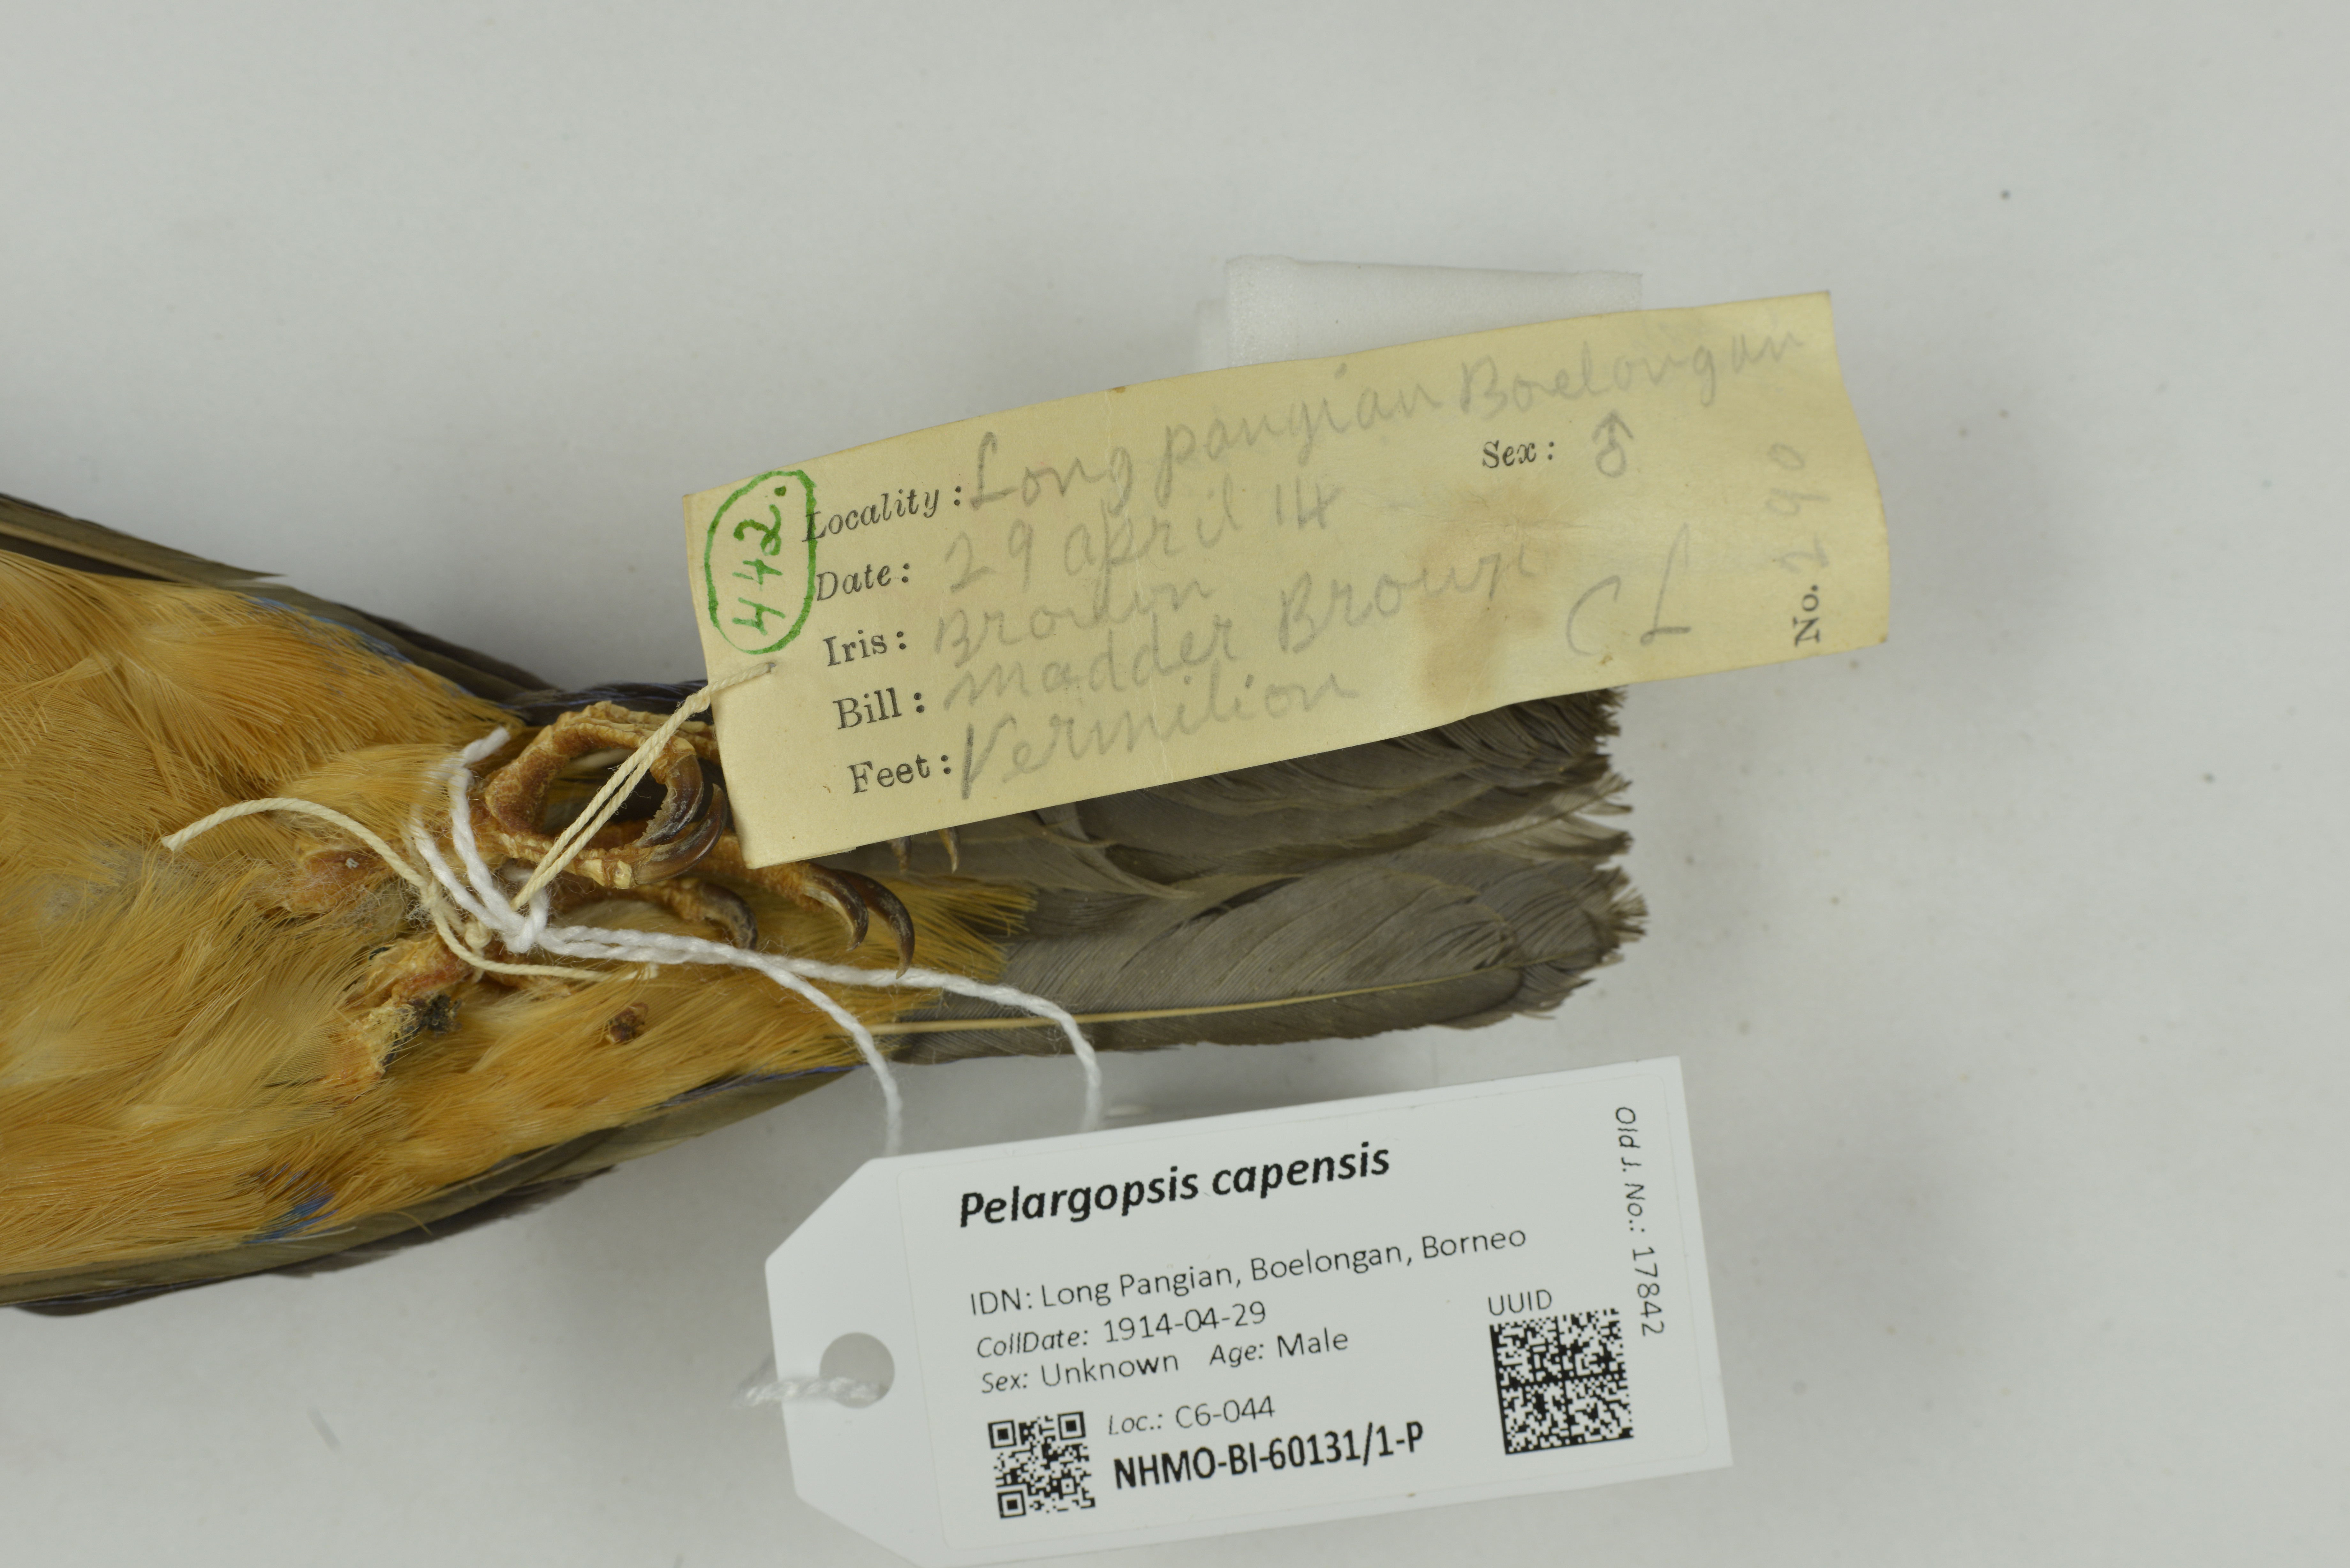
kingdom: Animalia
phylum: Chordata
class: Aves
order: Coraciiformes
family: Alcedinidae
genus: Pelargopsis
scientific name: Pelargopsis capensis
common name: Stork-billed kingfisher
